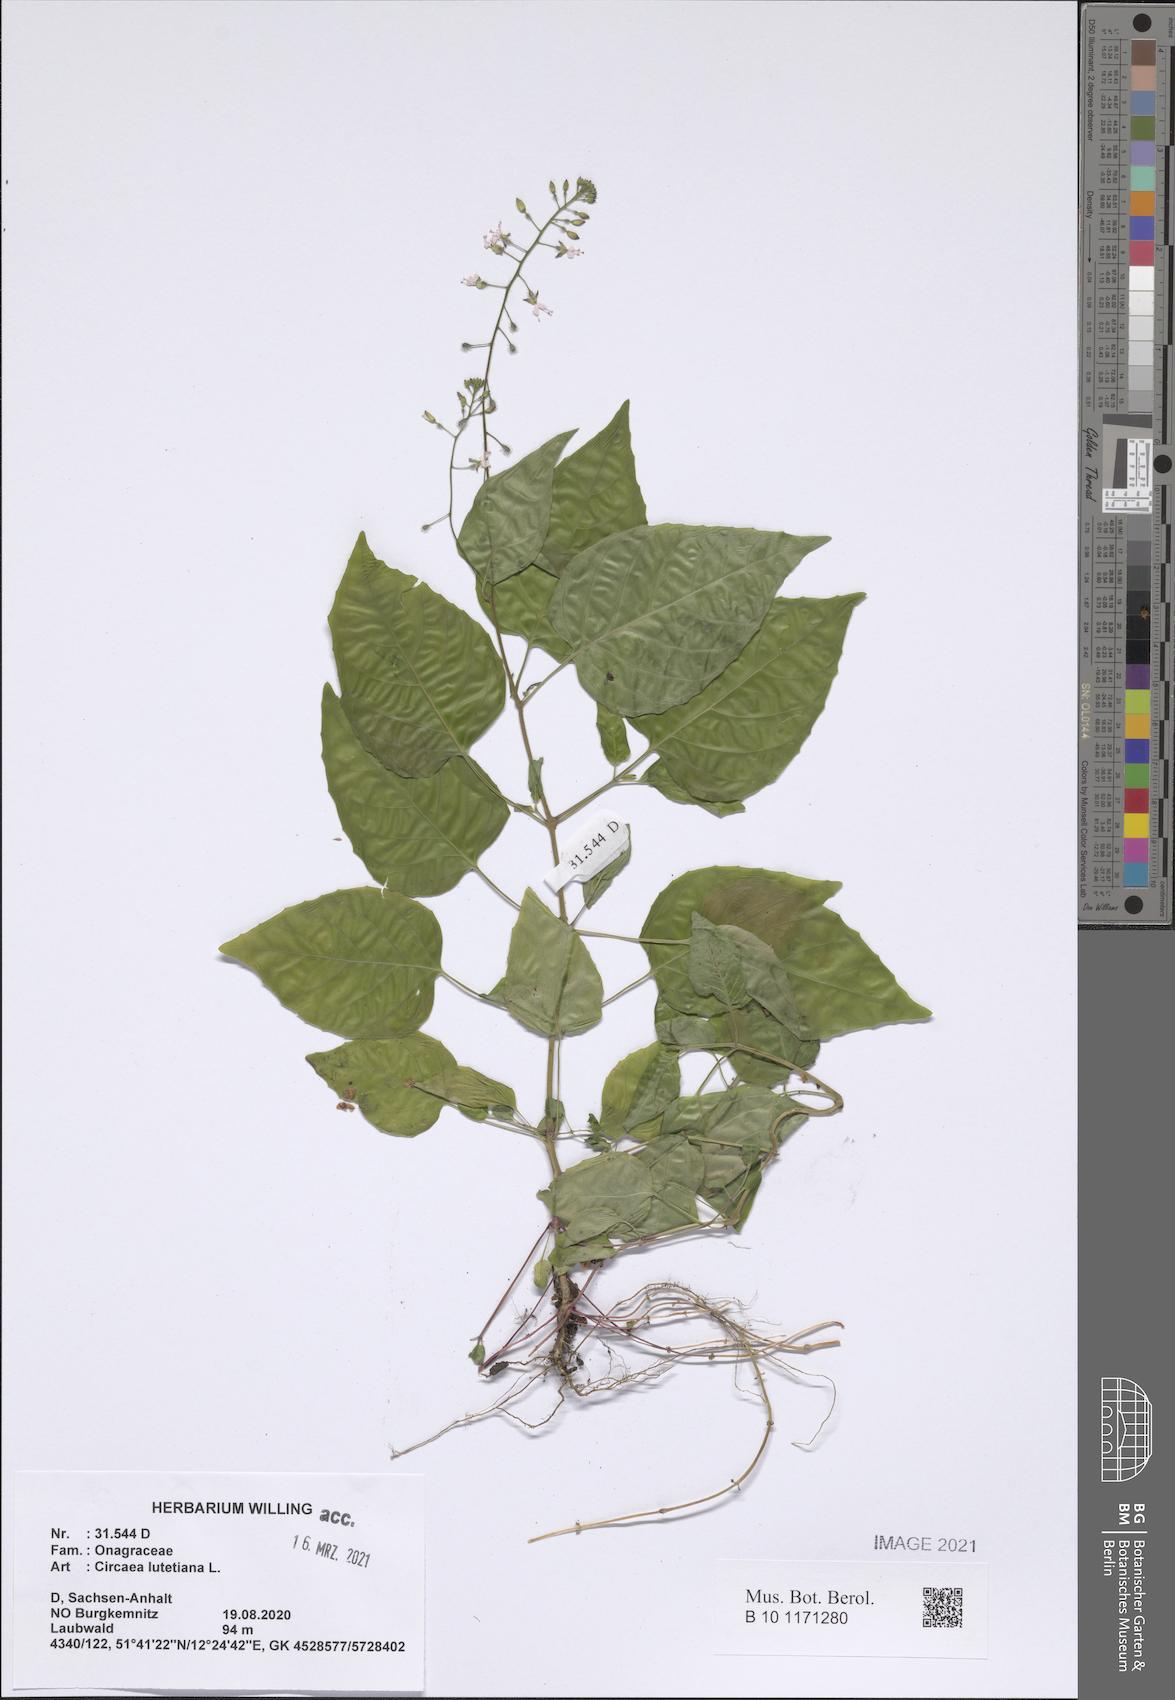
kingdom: Plantae
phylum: Tracheophyta
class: Magnoliopsida
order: Myrtales
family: Onagraceae
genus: Circaea
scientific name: Circaea lutetiana
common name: Enchanter's-nightshade
